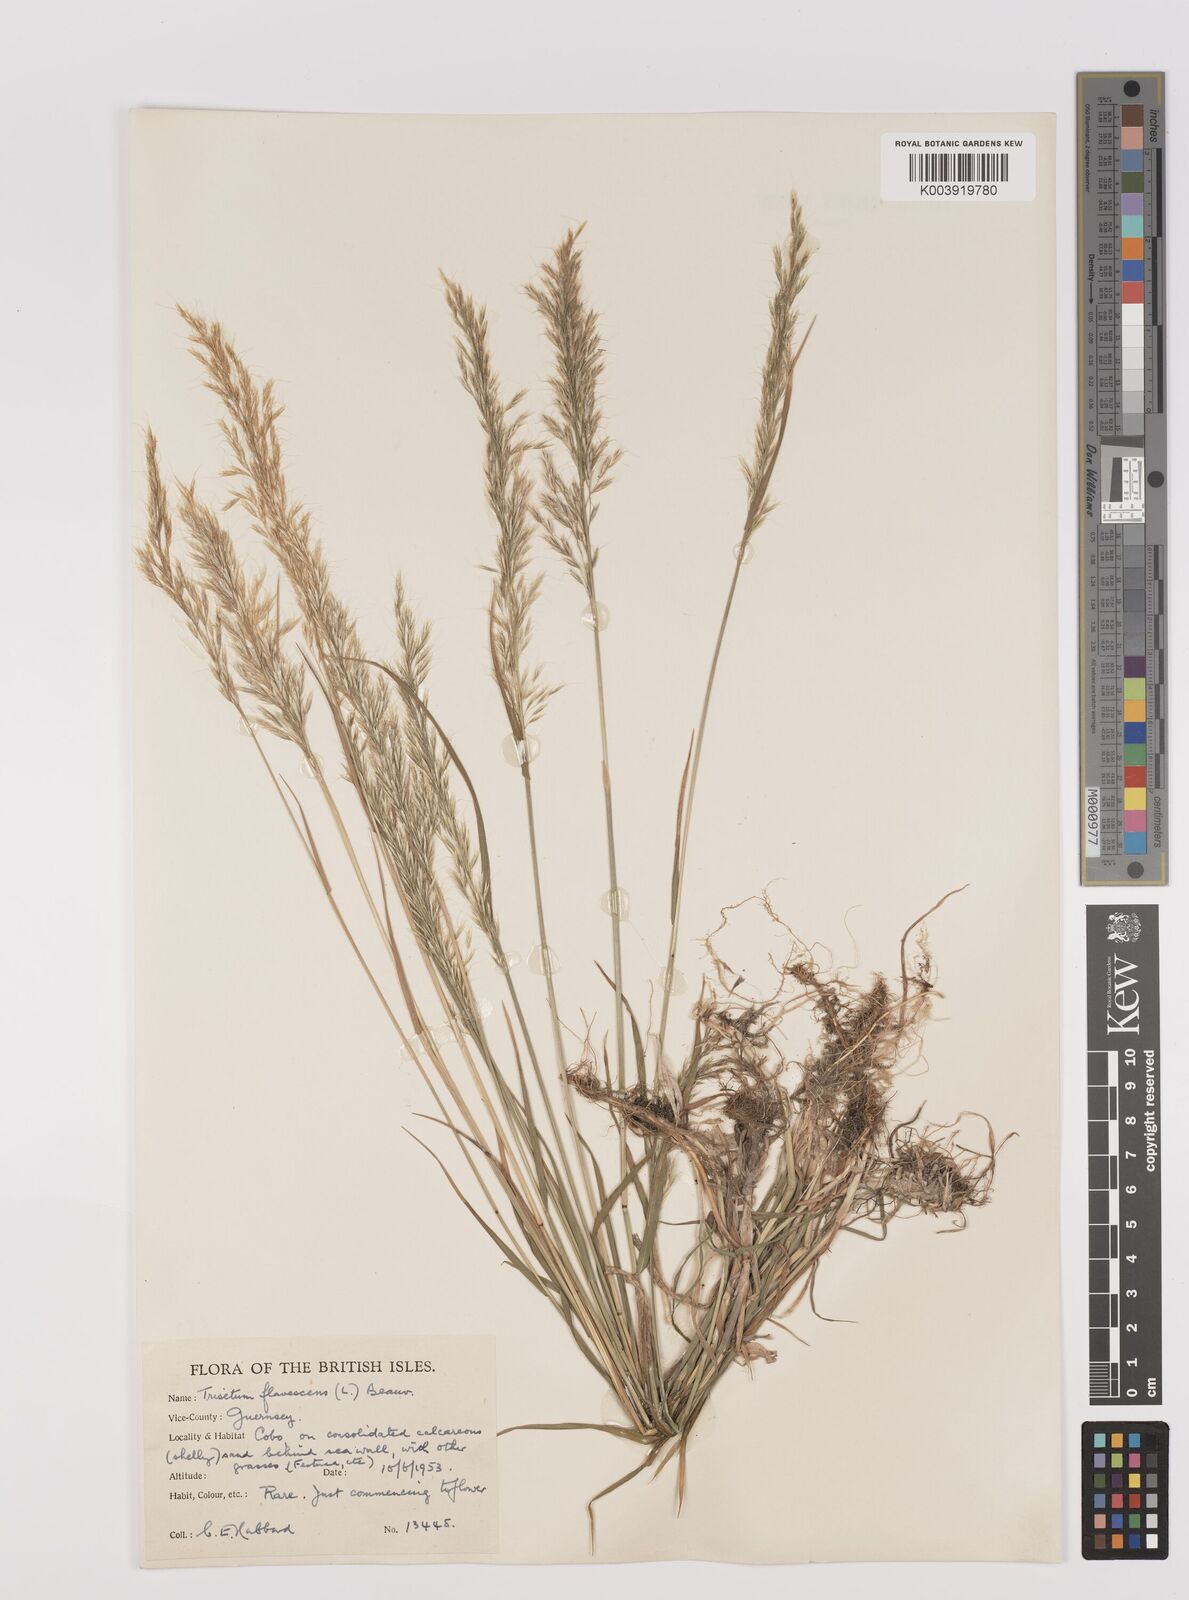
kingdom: Plantae
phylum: Tracheophyta
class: Liliopsida
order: Poales
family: Poaceae
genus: Trisetum
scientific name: Trisetum flavescens
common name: Yellow oat-grass
